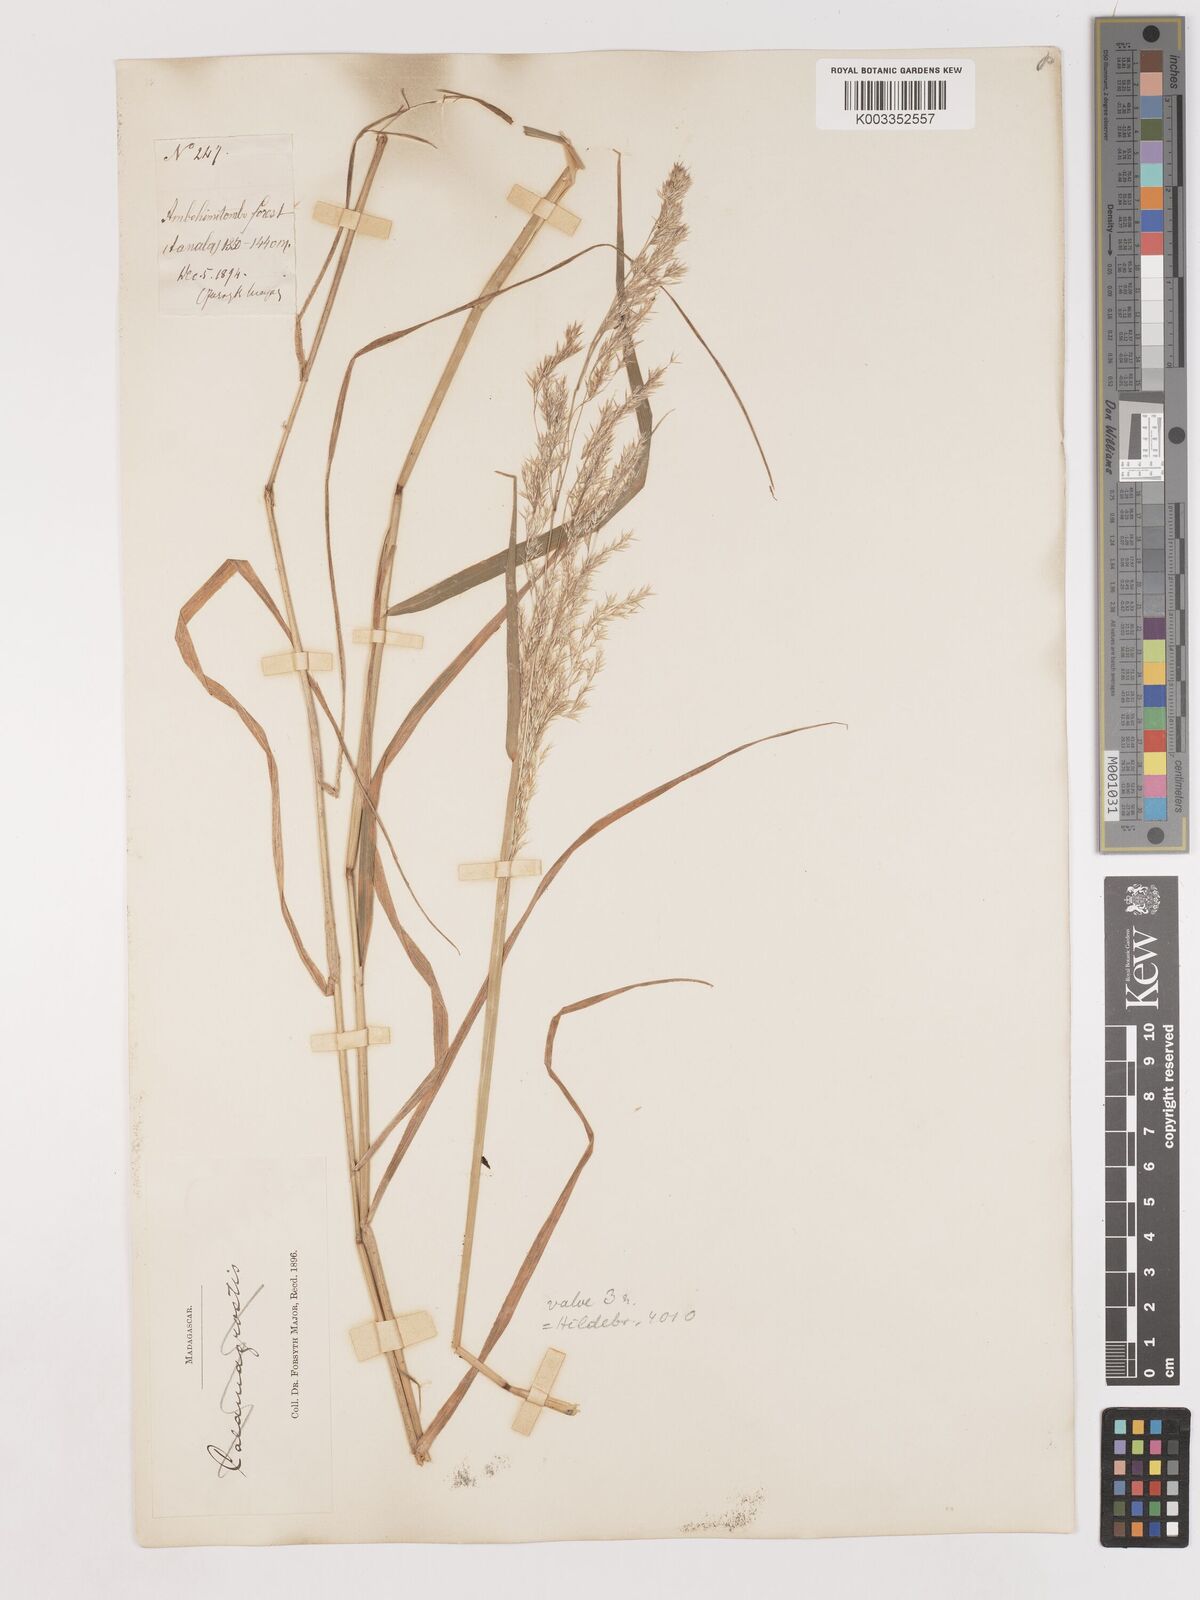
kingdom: Plantae
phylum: Tracheophyta
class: Liliopsida
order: Poales
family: Poaceae
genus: Agrostis
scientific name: Agrostis emirnensis
